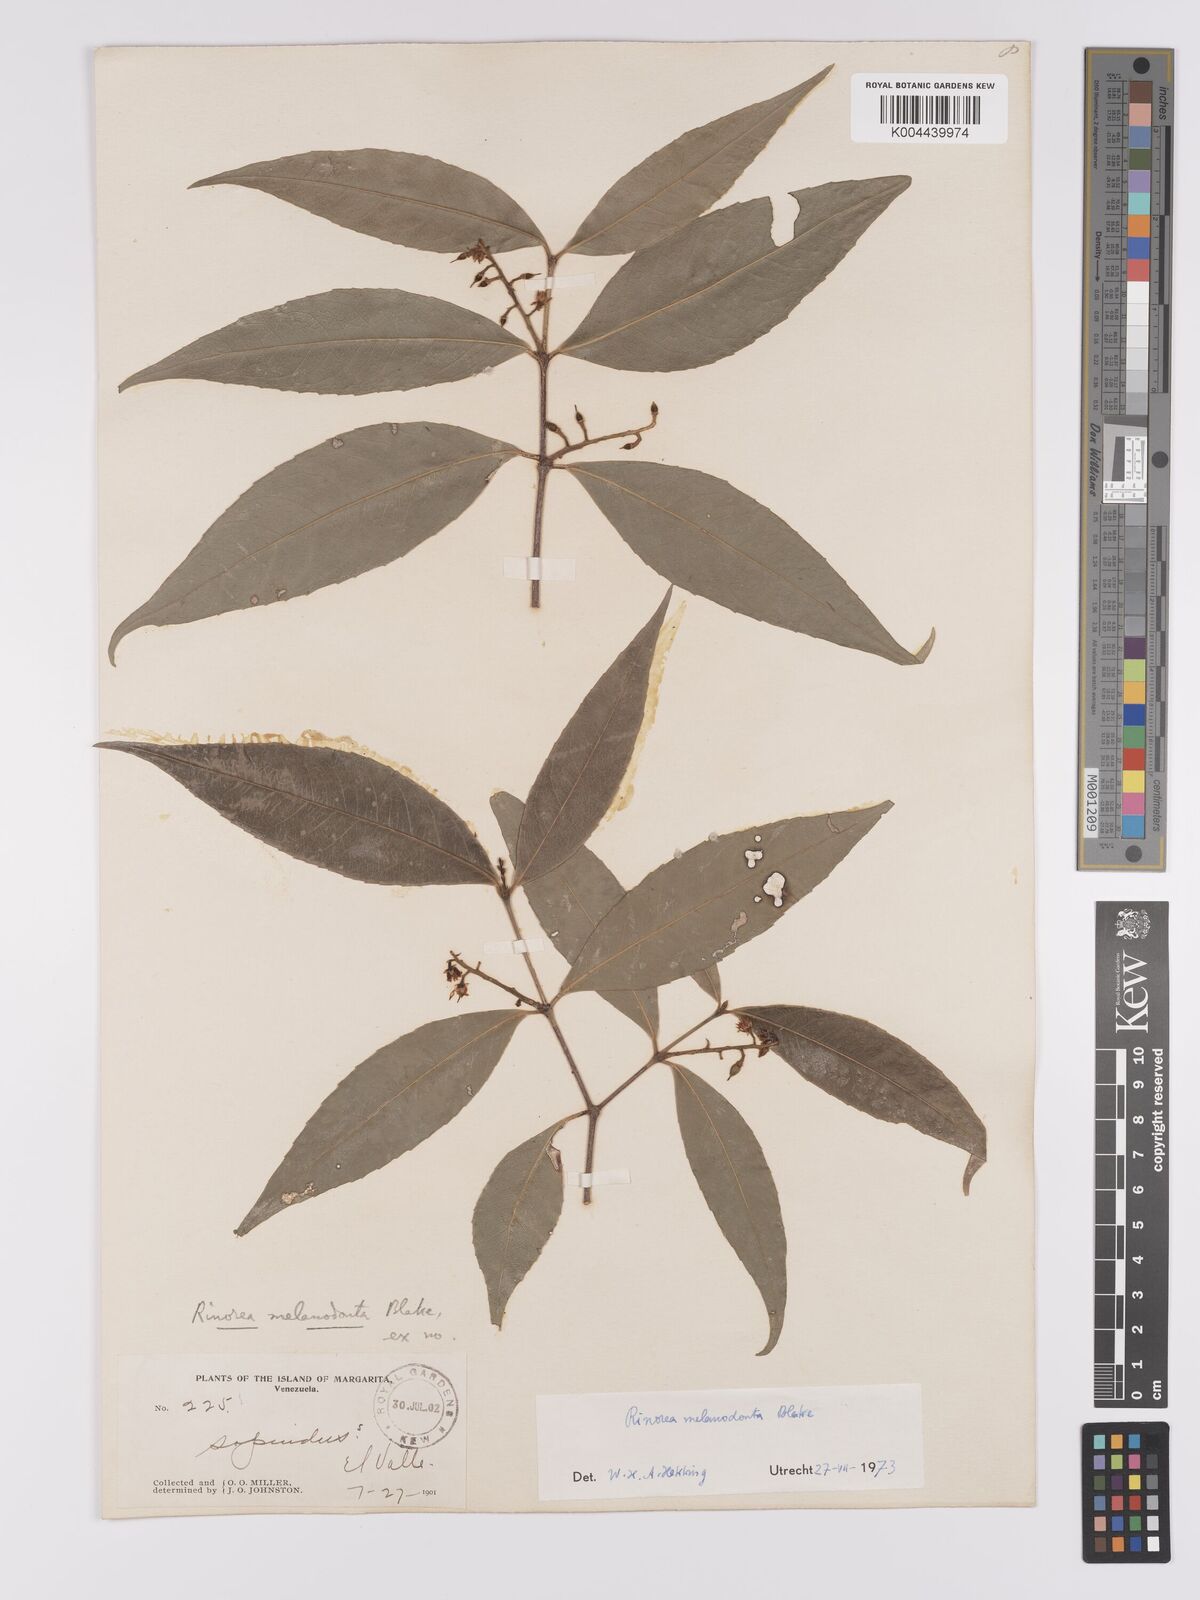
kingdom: Plantae
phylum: Tracheophyta
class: Magnoliopsida
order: Malpighiales
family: Violaceae
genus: Rinorea
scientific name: Rinorea melanodonta
